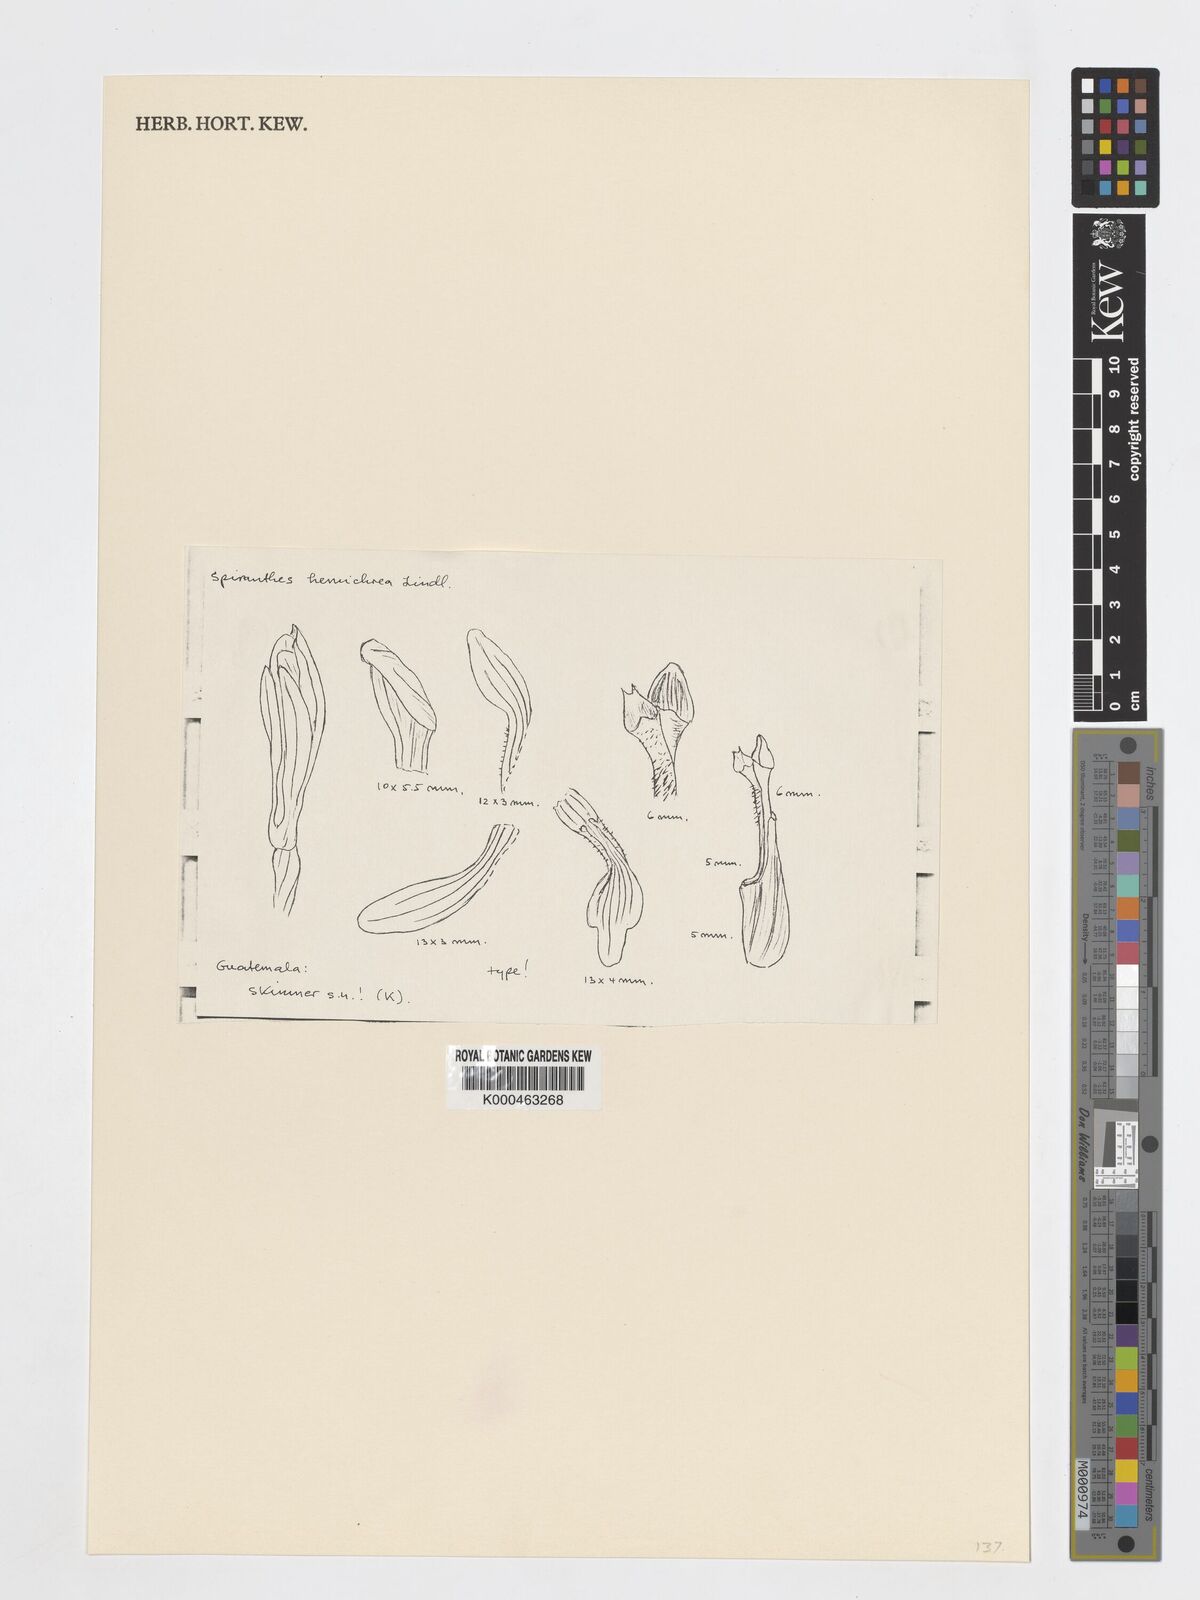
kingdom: Plantae
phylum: Tracheophyta
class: Liliopsida
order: Asparagales
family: Orchidaceae
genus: Aulosepalum
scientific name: Aulosepalum hemichrea
